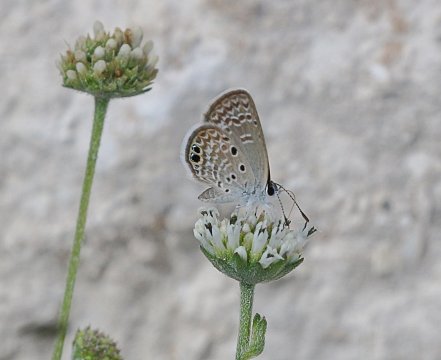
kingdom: Animalia
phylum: Arthropoda
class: Insecta
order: Lepidoptera
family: Lycaenidae
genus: Hemiargus
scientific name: Hemiargus ceraunus
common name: Ceraunus Blue
